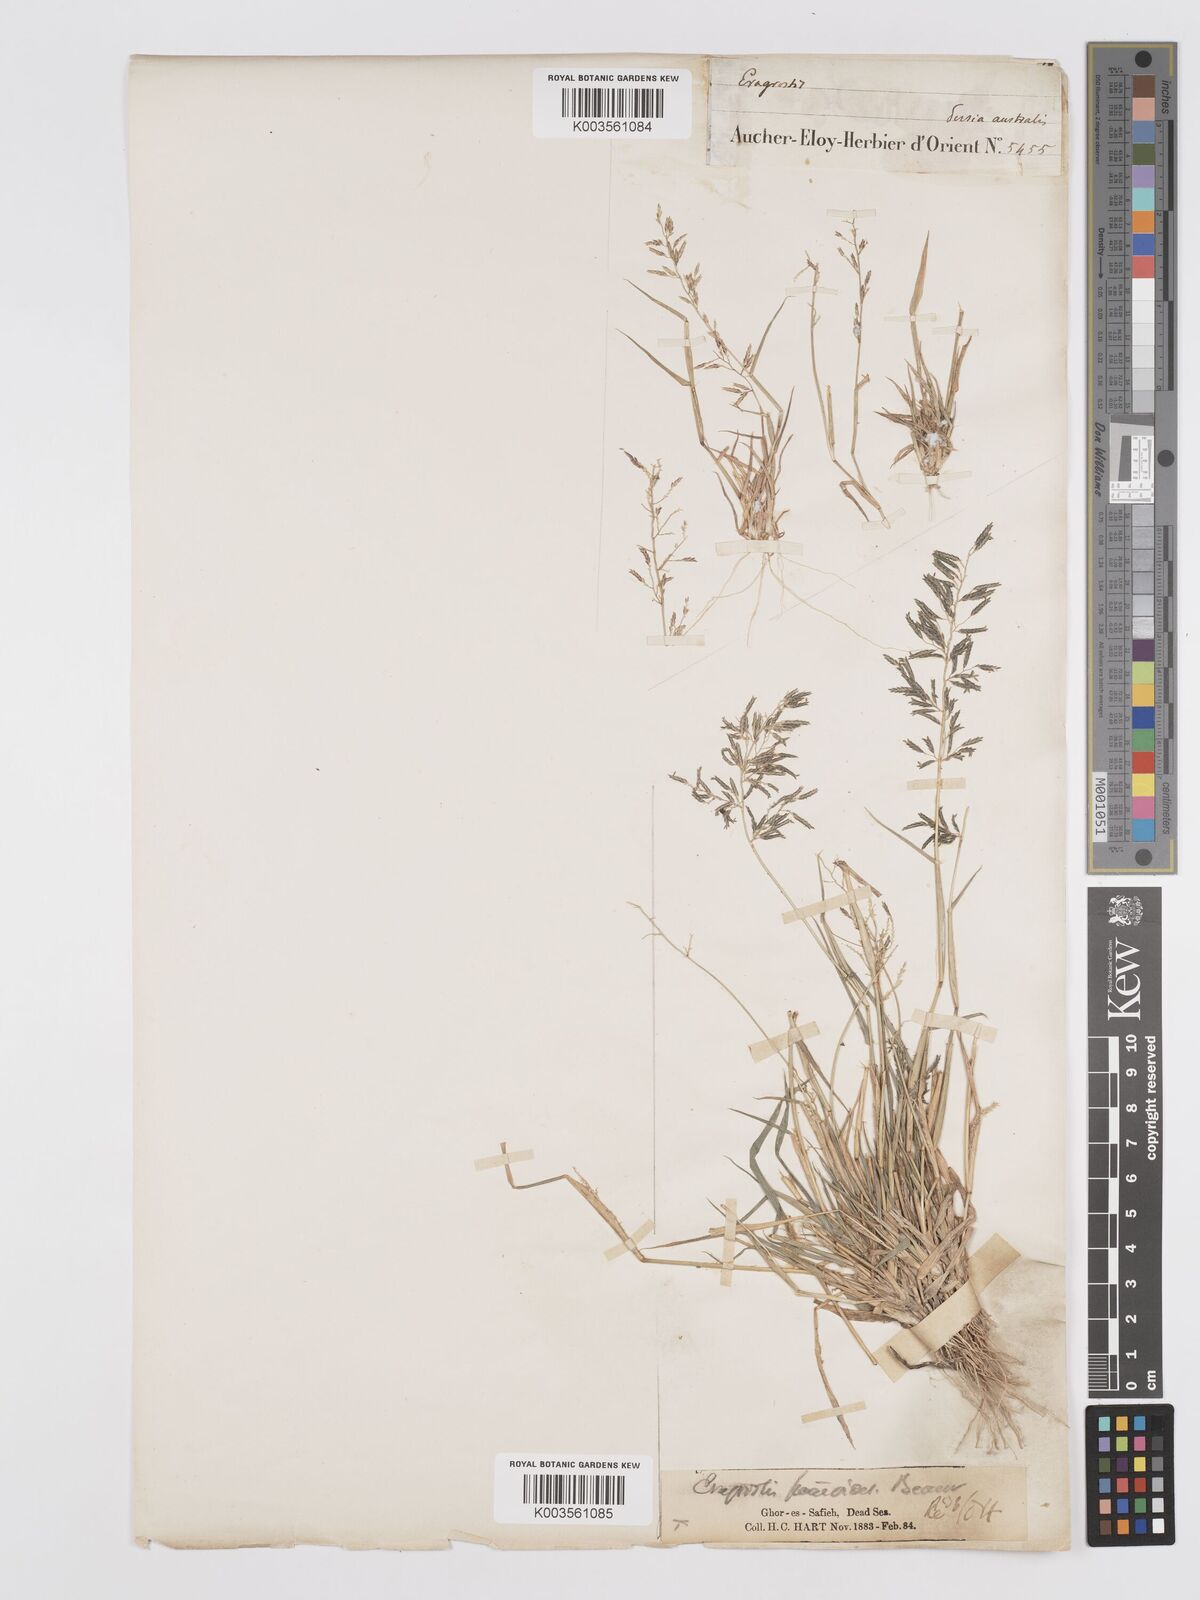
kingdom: Plantae
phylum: Tracheophyta
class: Liliopsida
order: Poales
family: Poaceae
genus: Eragrostis
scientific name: Eragrostis barrelieri
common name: Mediterranean lovegrass
